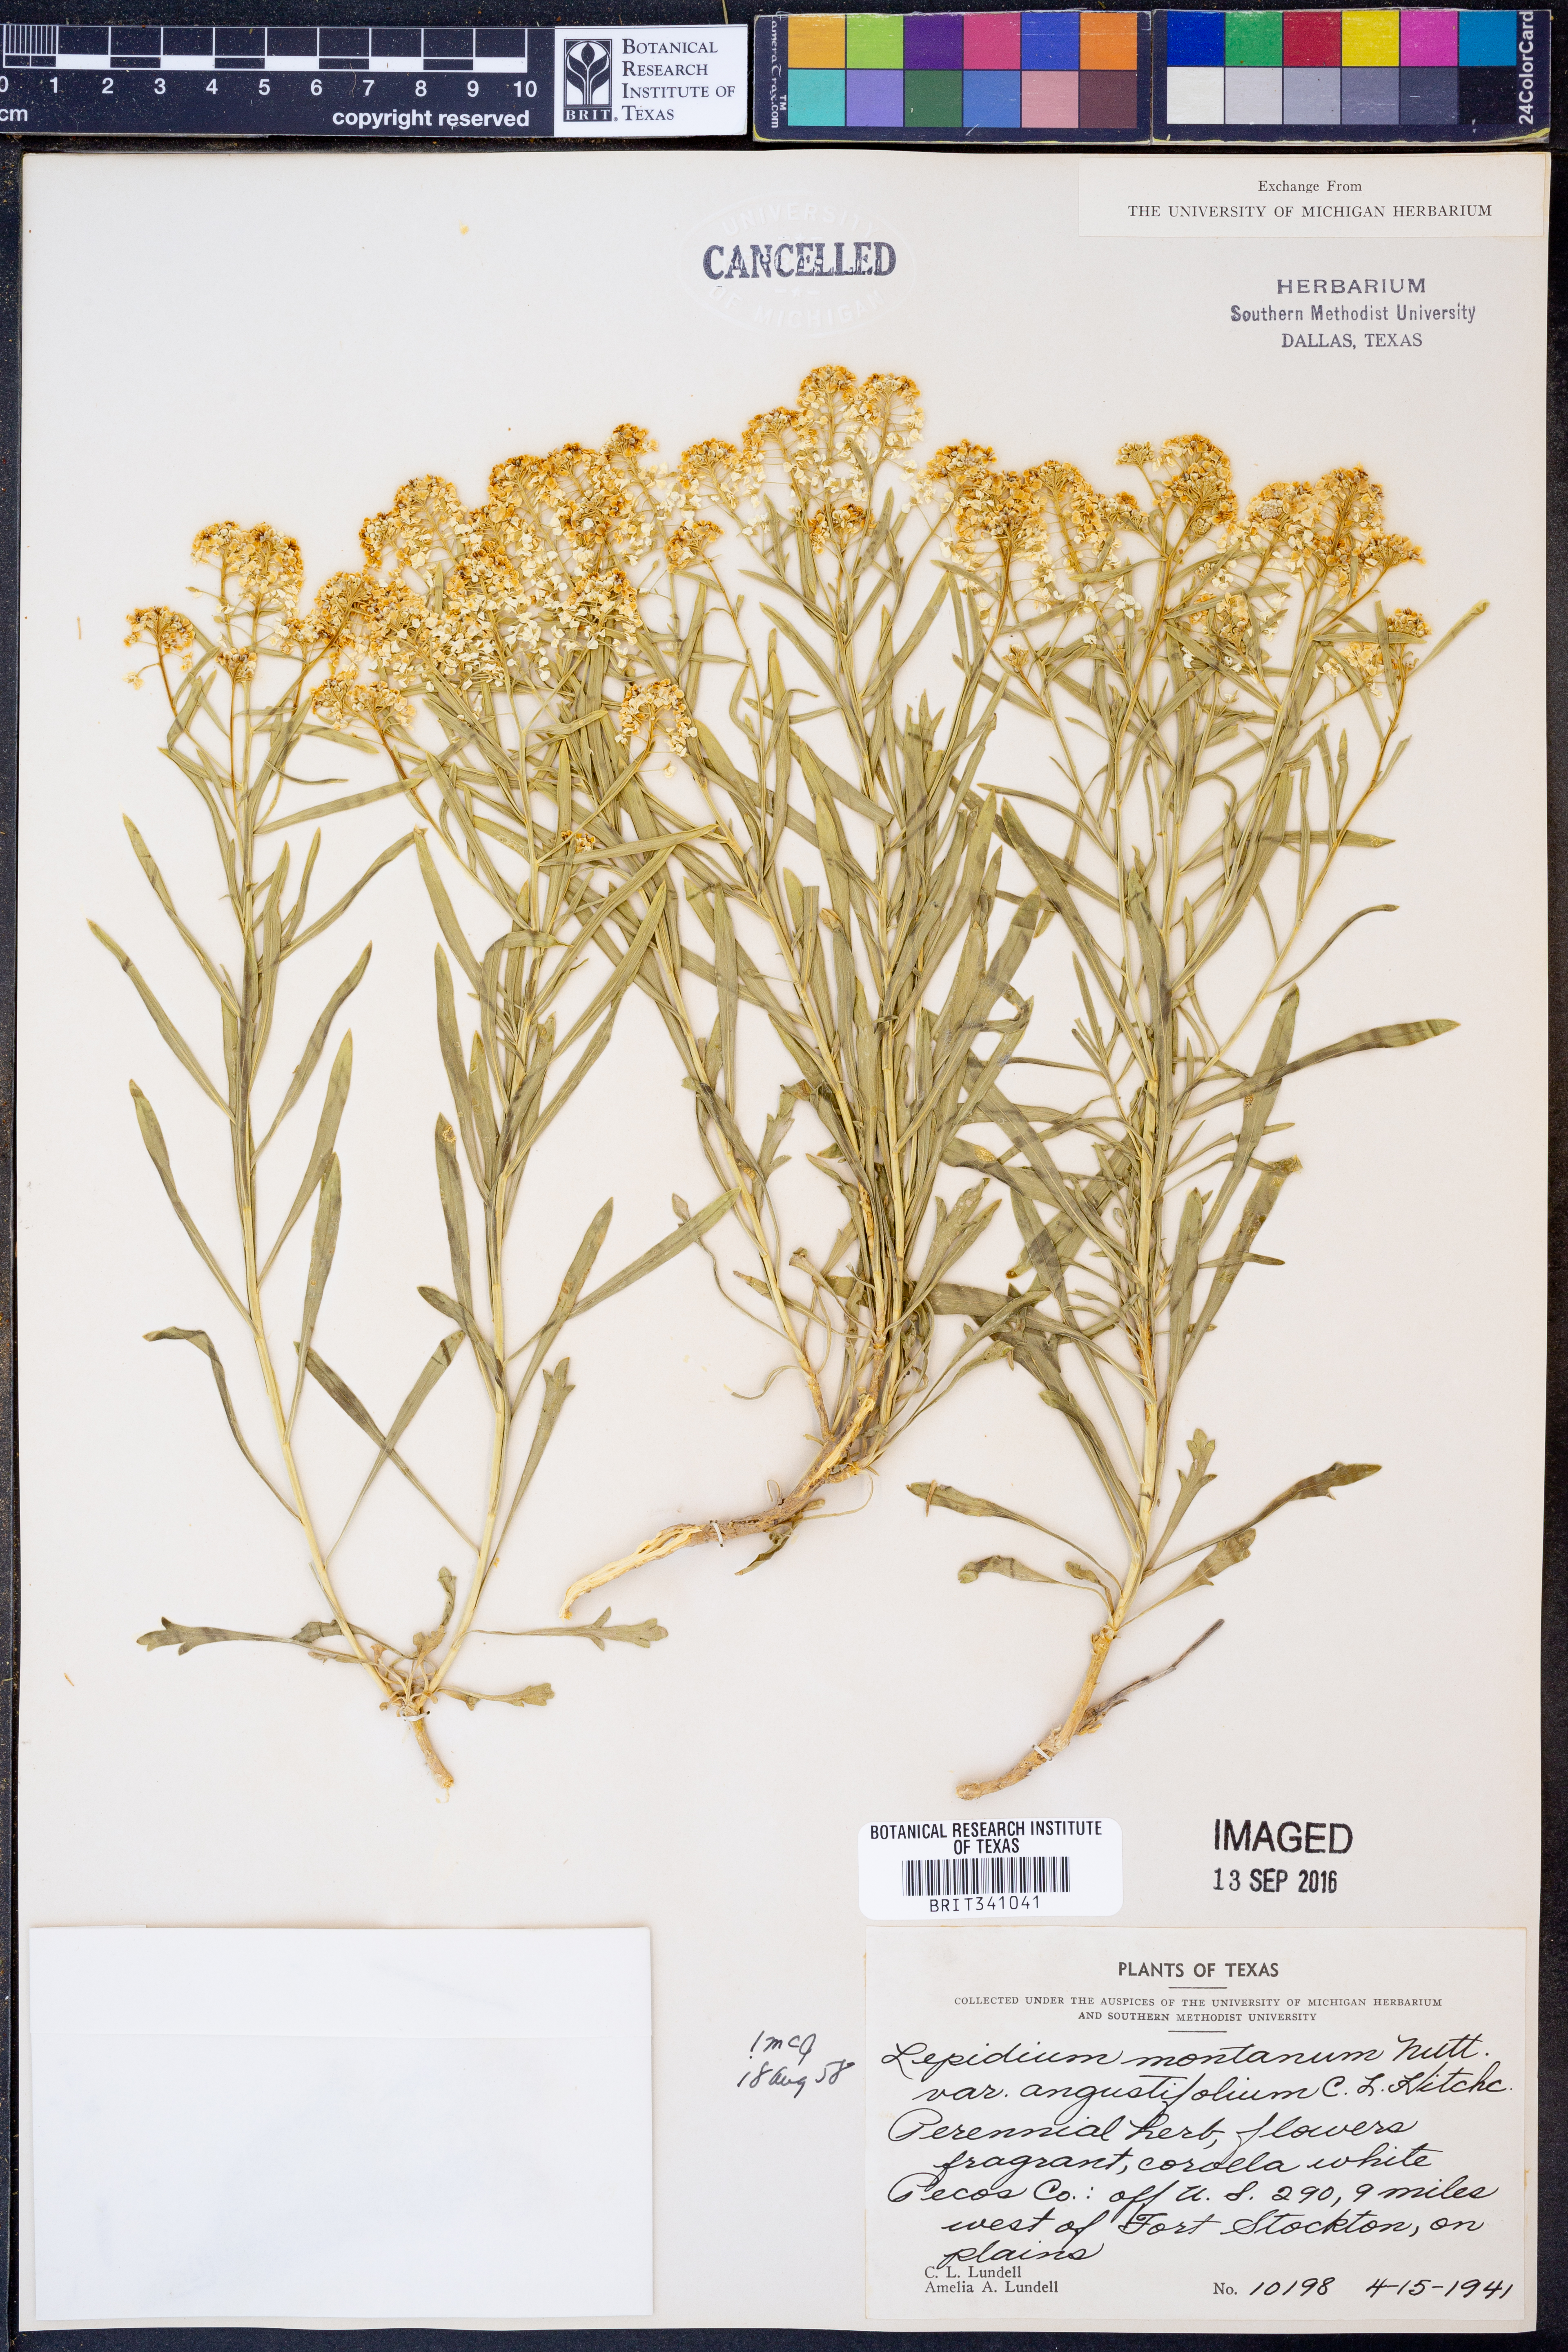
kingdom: Plantae
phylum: Tracheophyta
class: Magnoliopsida
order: Brassicales
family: Brassicaceae
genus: Lepidium
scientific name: Lepidium alyssoides
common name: Mesa pepperweed
